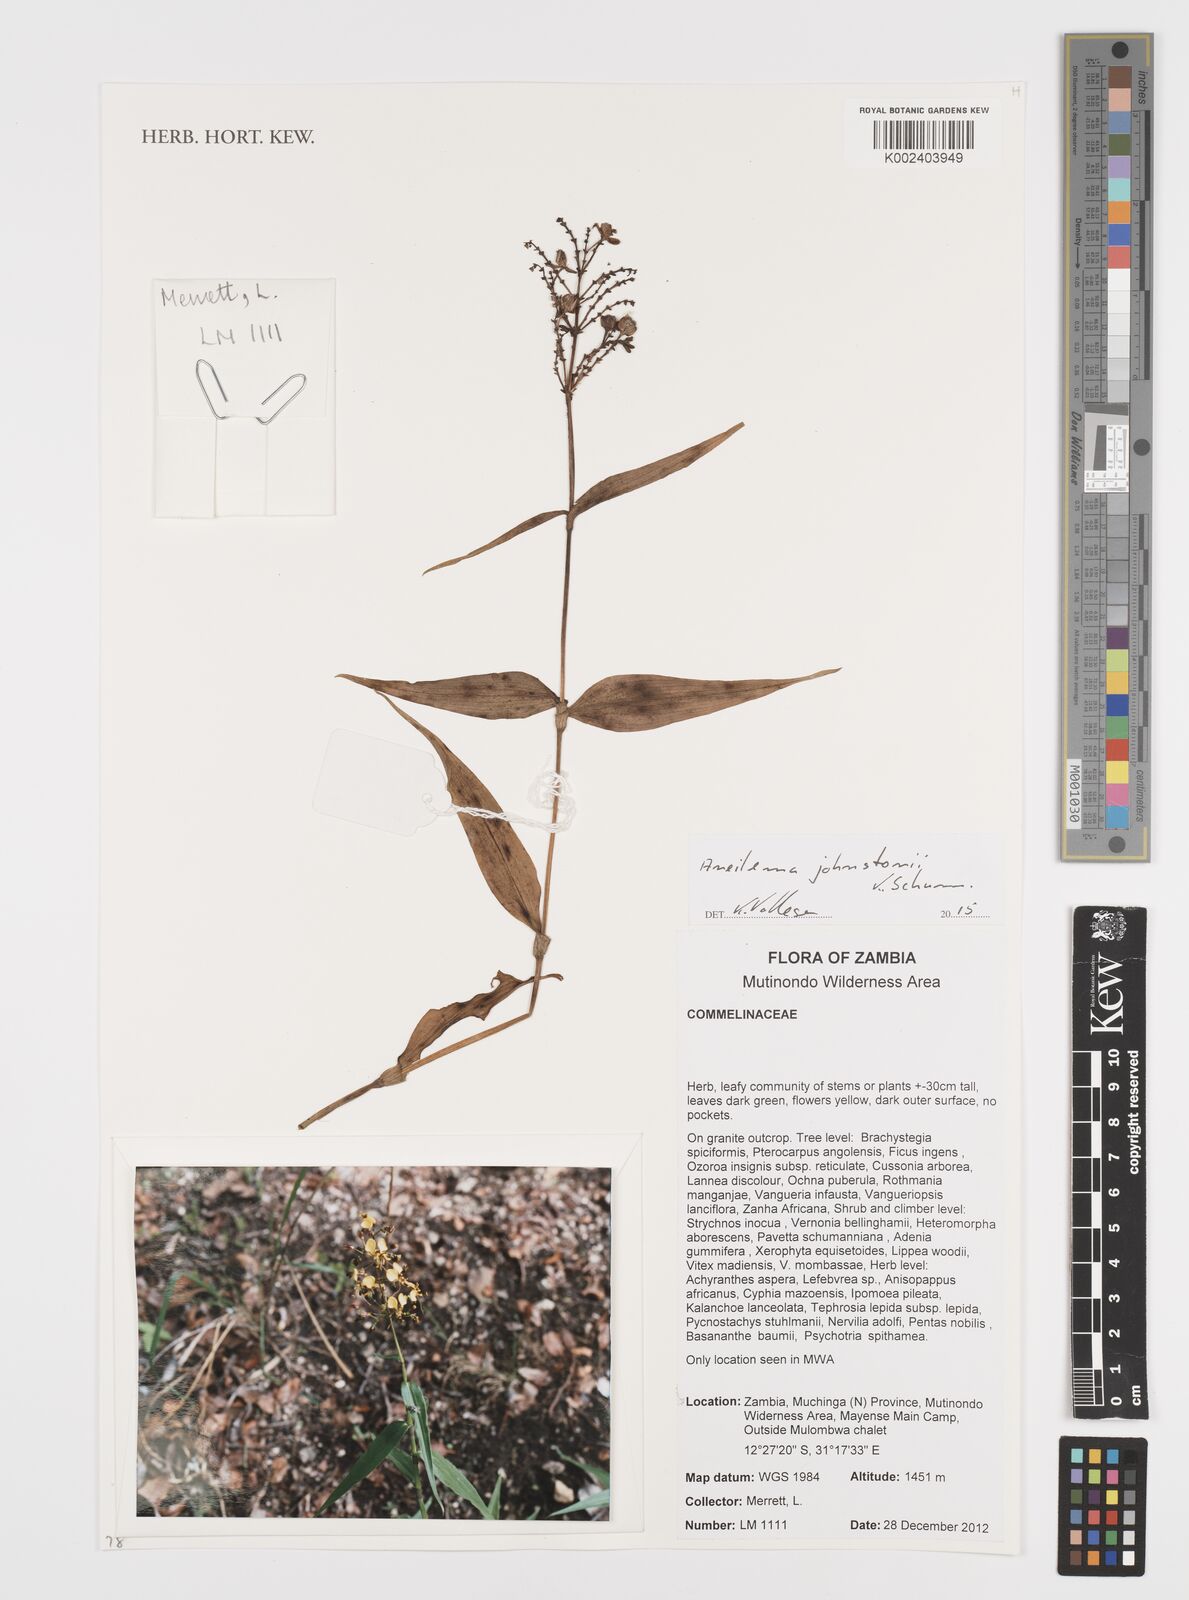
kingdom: Plantae
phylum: Tracheophyta
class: Liliopsida
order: Commelinales
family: Commelinaceae
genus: Aneilema
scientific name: Aneilema johnstonii
